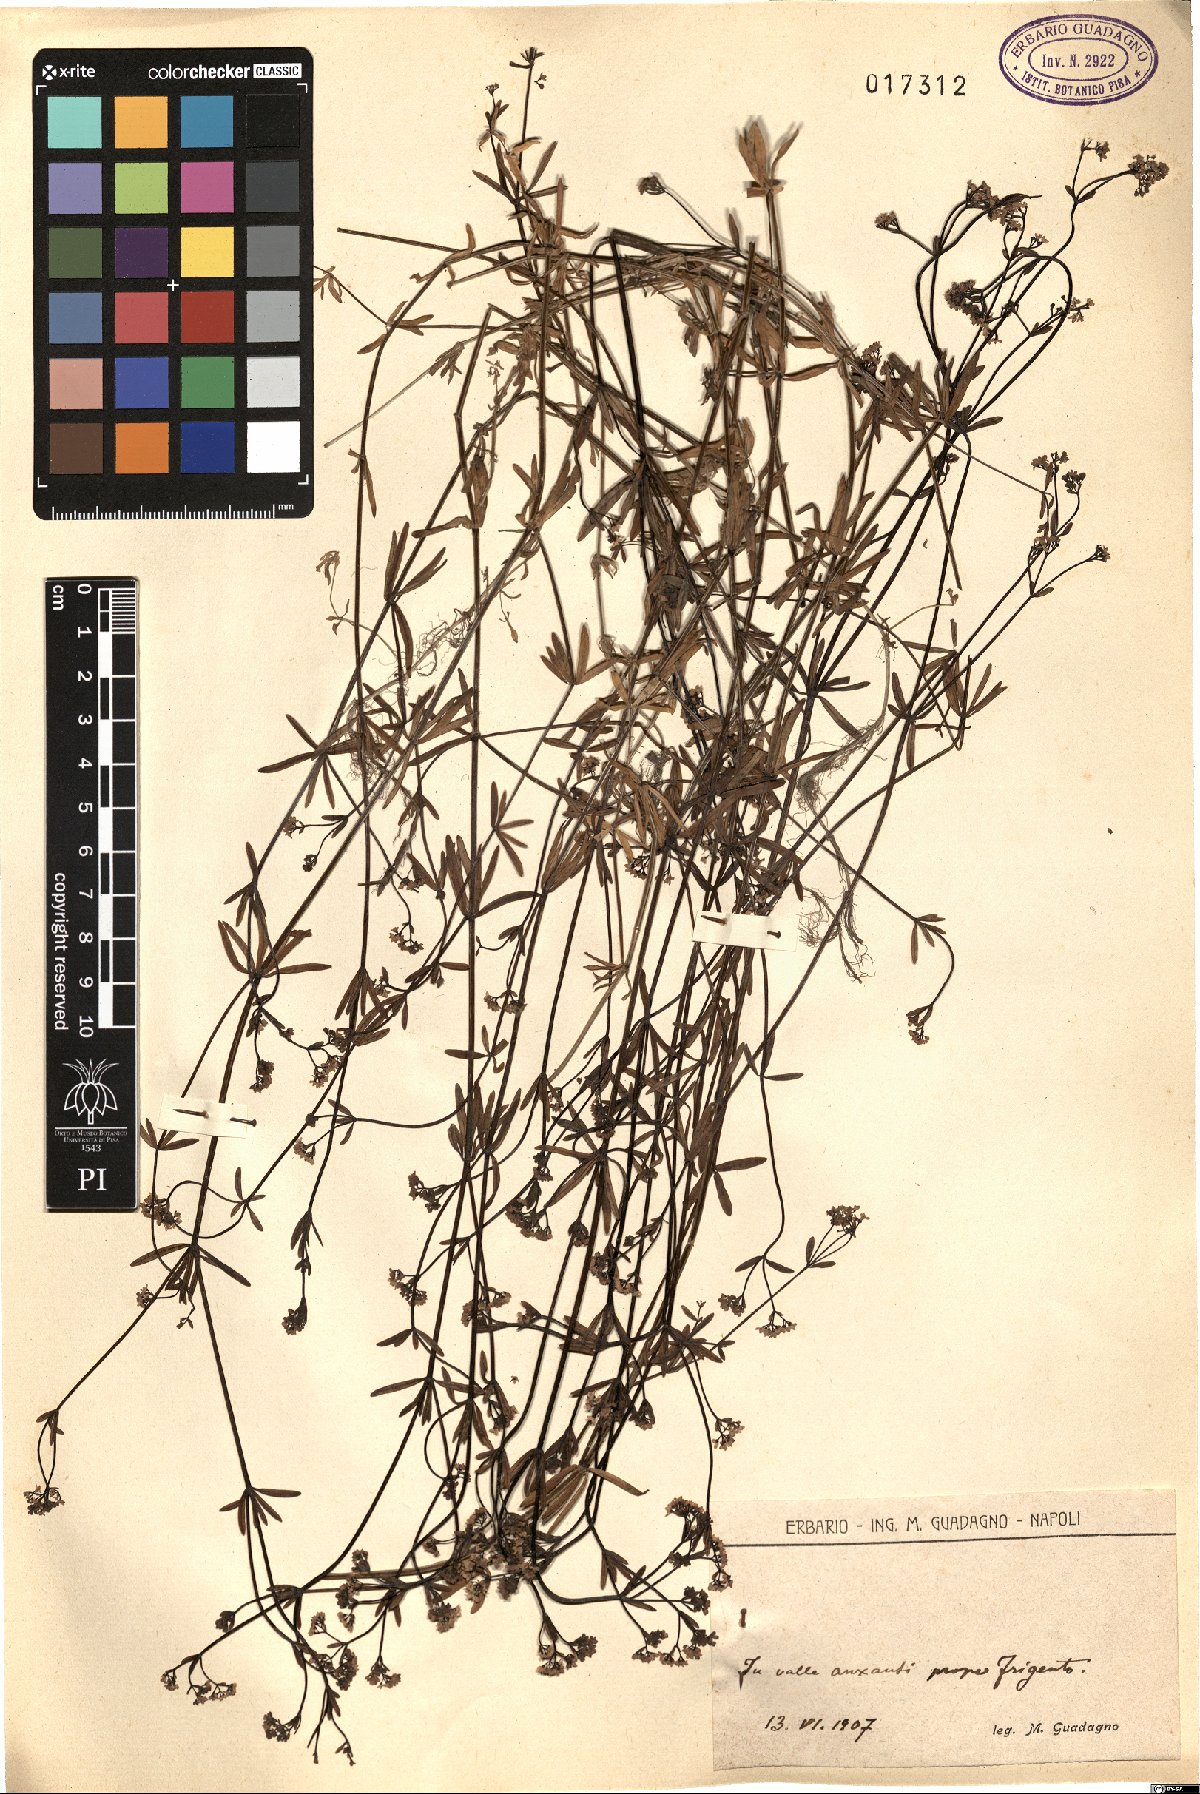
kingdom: Plantae
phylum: Tracheophyta
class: Magnoliopsida
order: Gentianales
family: Rubiaceae
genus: Galium
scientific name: Galium
